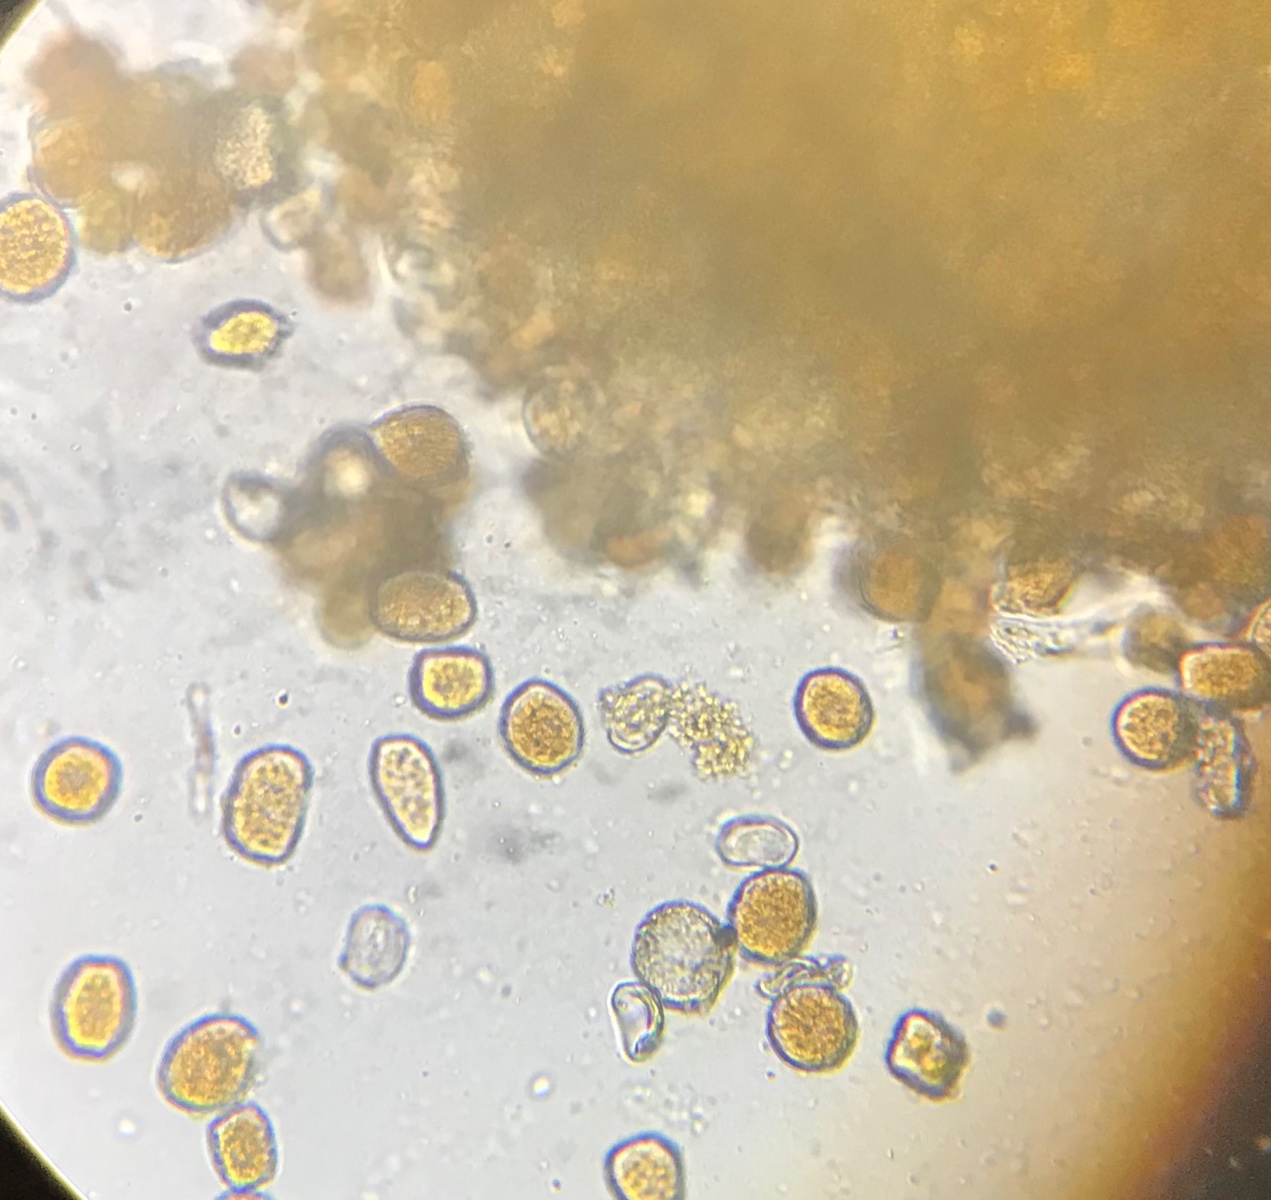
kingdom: Fungi
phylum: Basidiomycota
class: Pucciniomycetes
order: Pucciniales
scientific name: Pucciniales
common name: rustsvampeordenen
